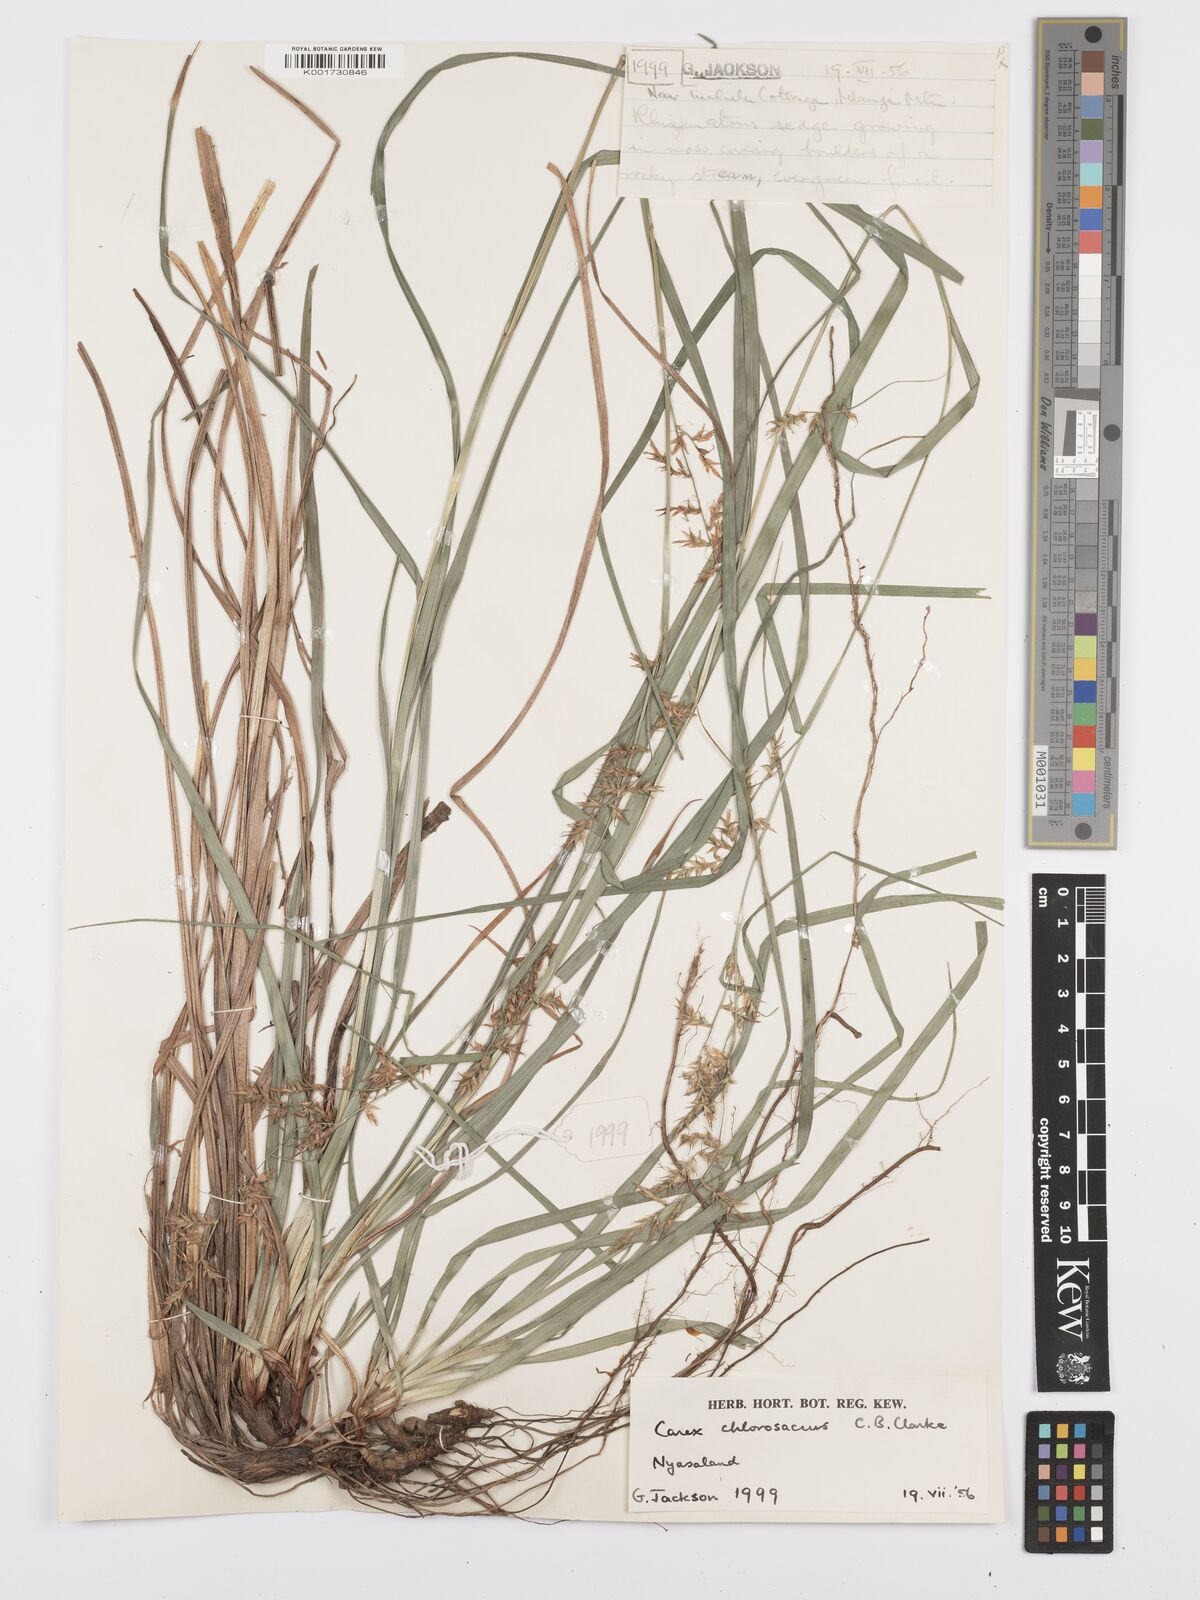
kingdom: Plantae
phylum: Tracheophyta
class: Liliopsida
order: Poales
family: Cyperaceae
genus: Carex
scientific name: Carex chlorosaccus
